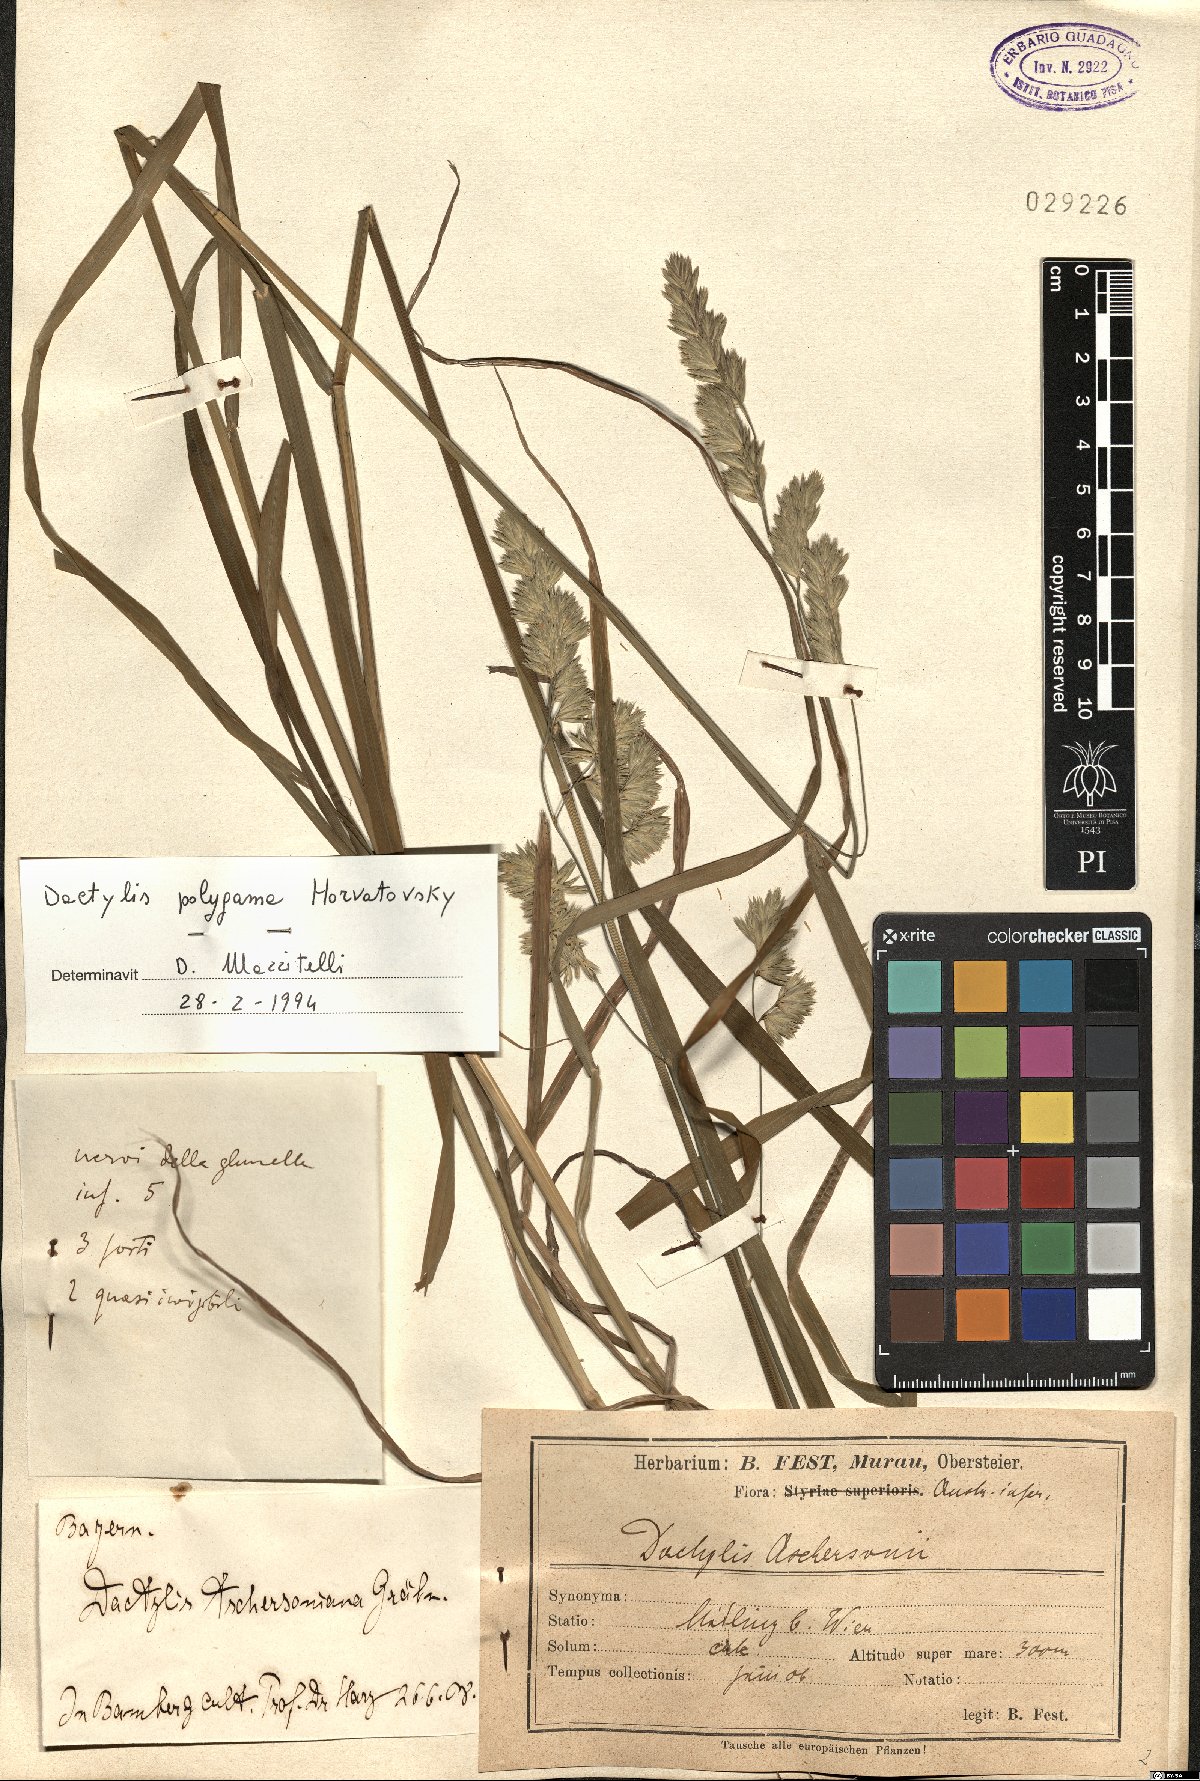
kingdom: Plantae
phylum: Tracheophyta
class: Liliopsida
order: Poales
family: Poaceae
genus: Dactylis
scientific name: Dactylis glomerata
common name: Orchardgrass
